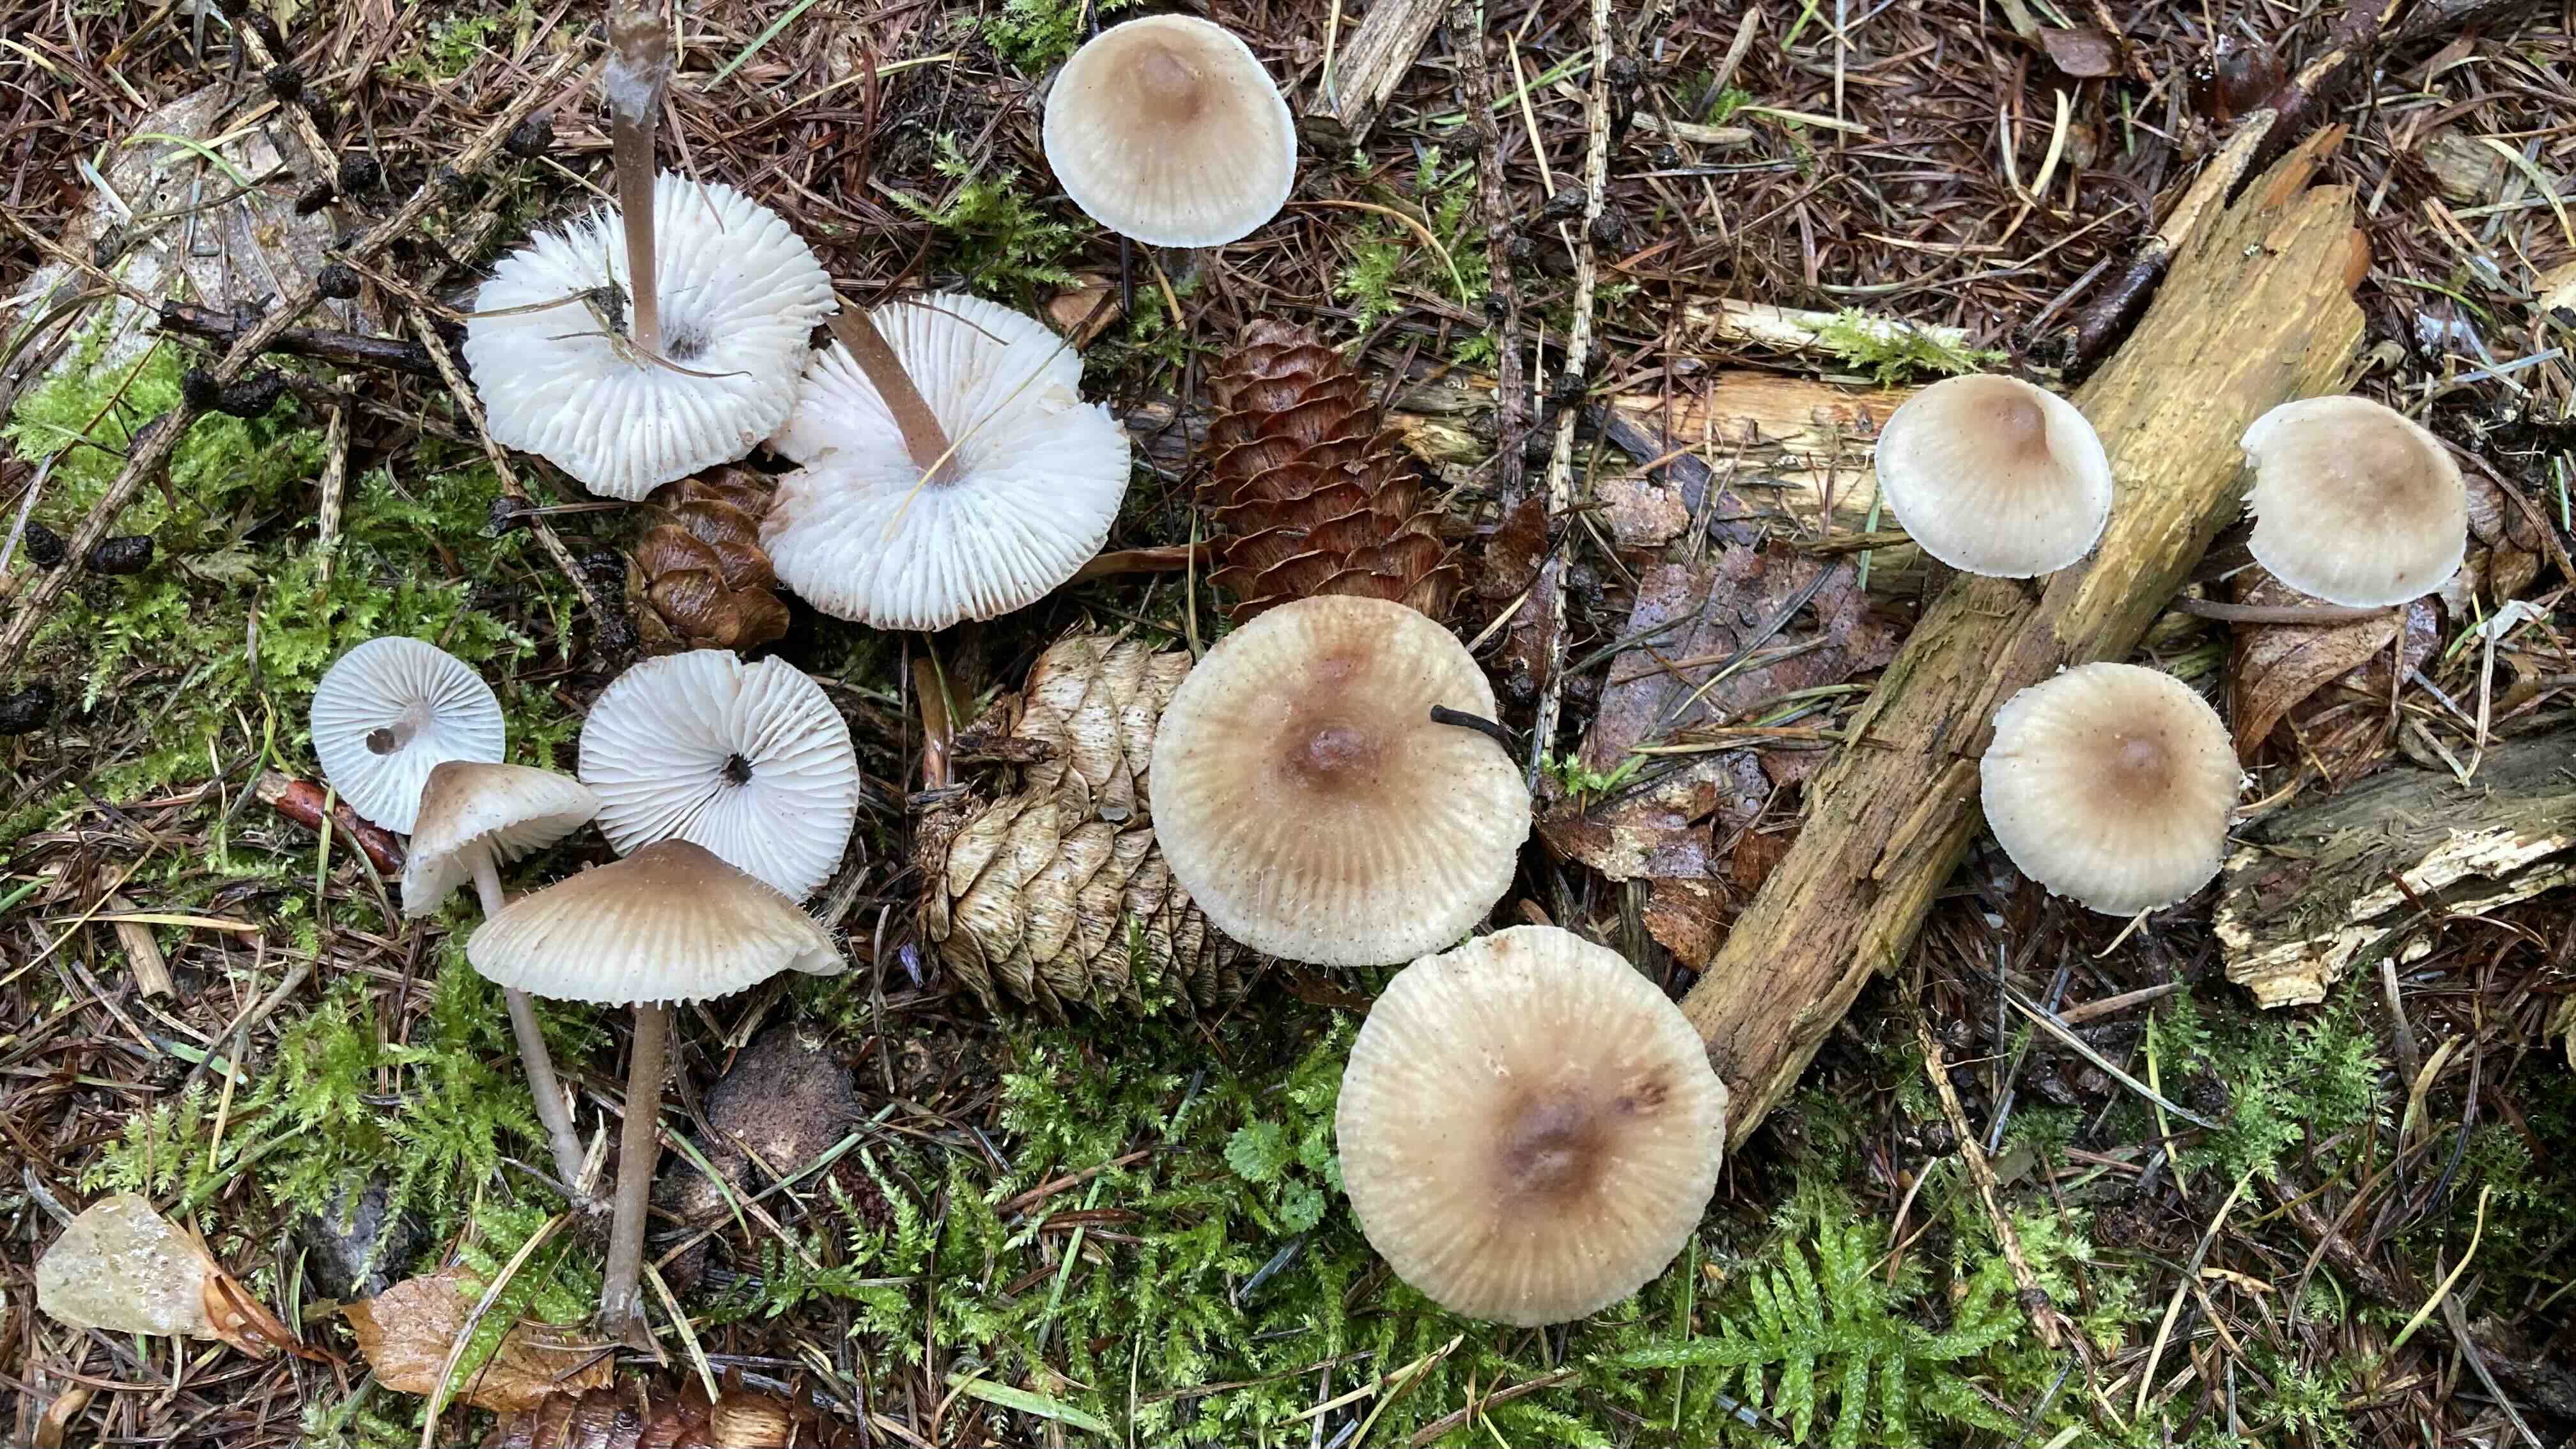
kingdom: Fungi
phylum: Basidiomycota
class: Agaricomycetes
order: Agaricales
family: Mycenaceae
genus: Mycena
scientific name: Mycena zephirus
